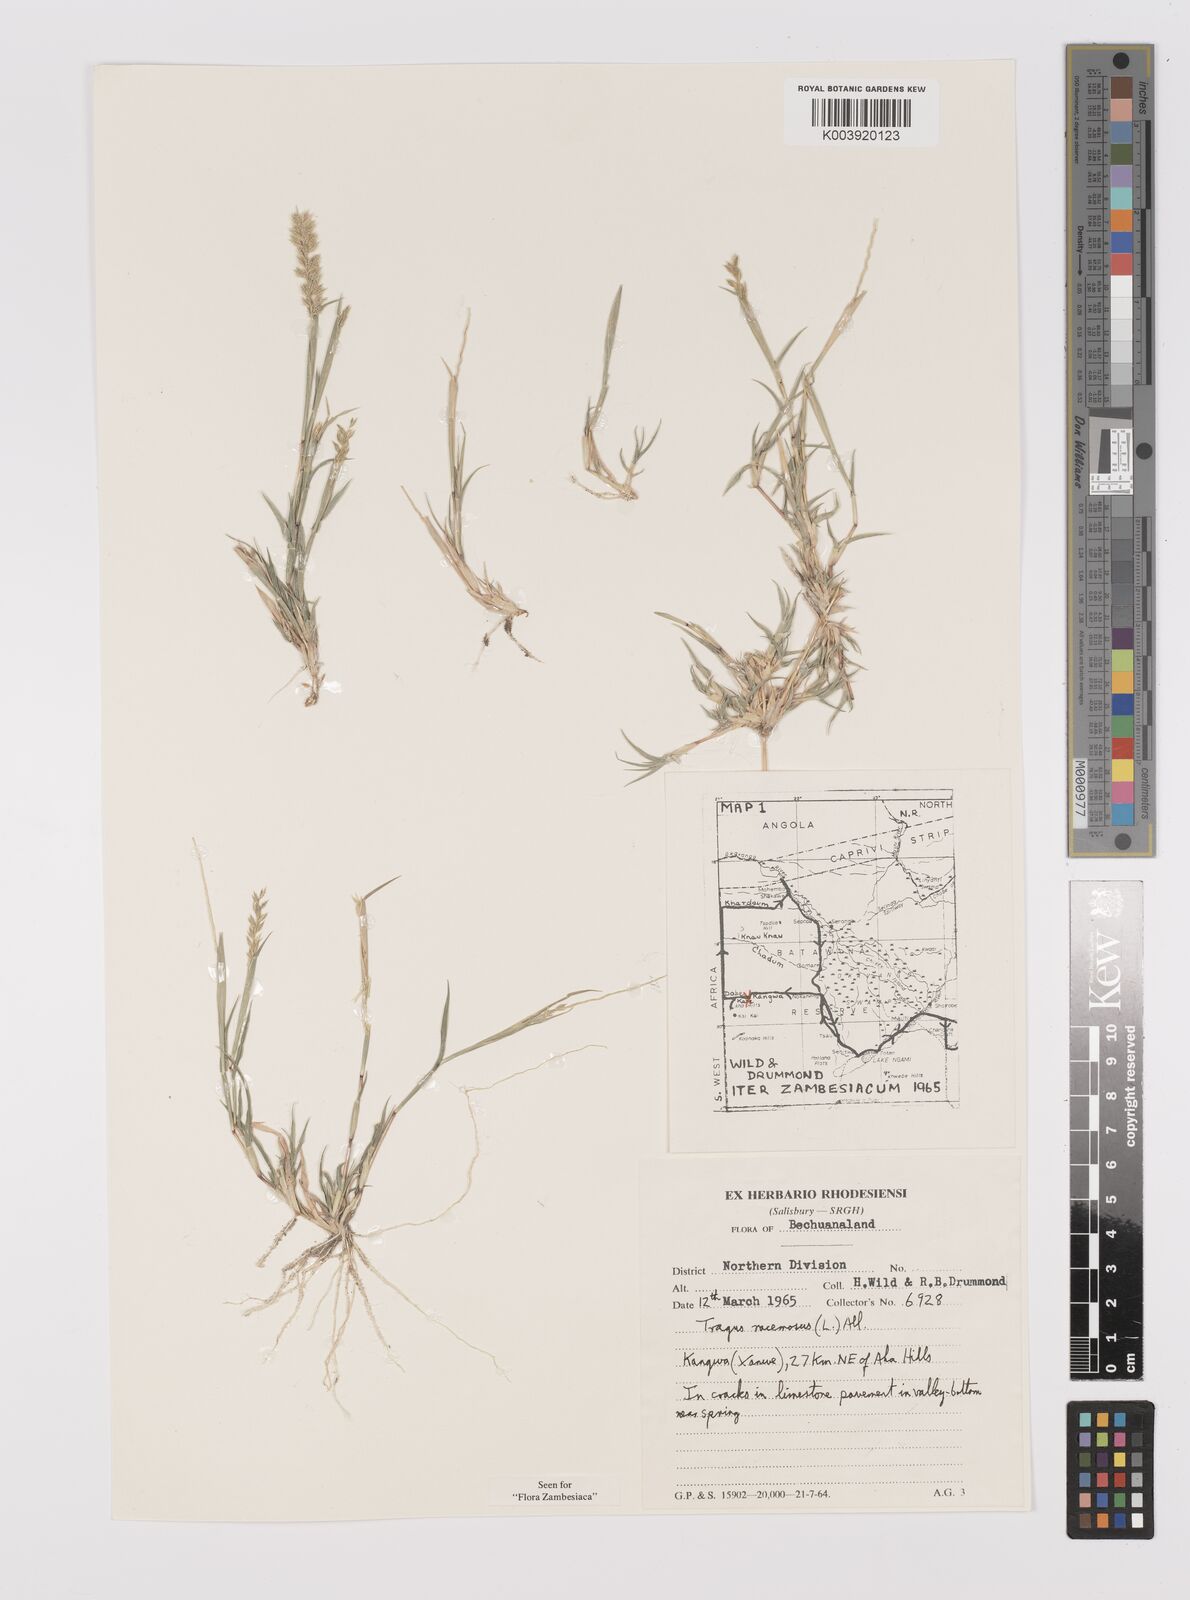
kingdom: Plantae
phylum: Tracheophyta
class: Liliopsida
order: Poales
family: Poaceae
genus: Tragus
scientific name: Tragus racemosus
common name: European bur-grass
